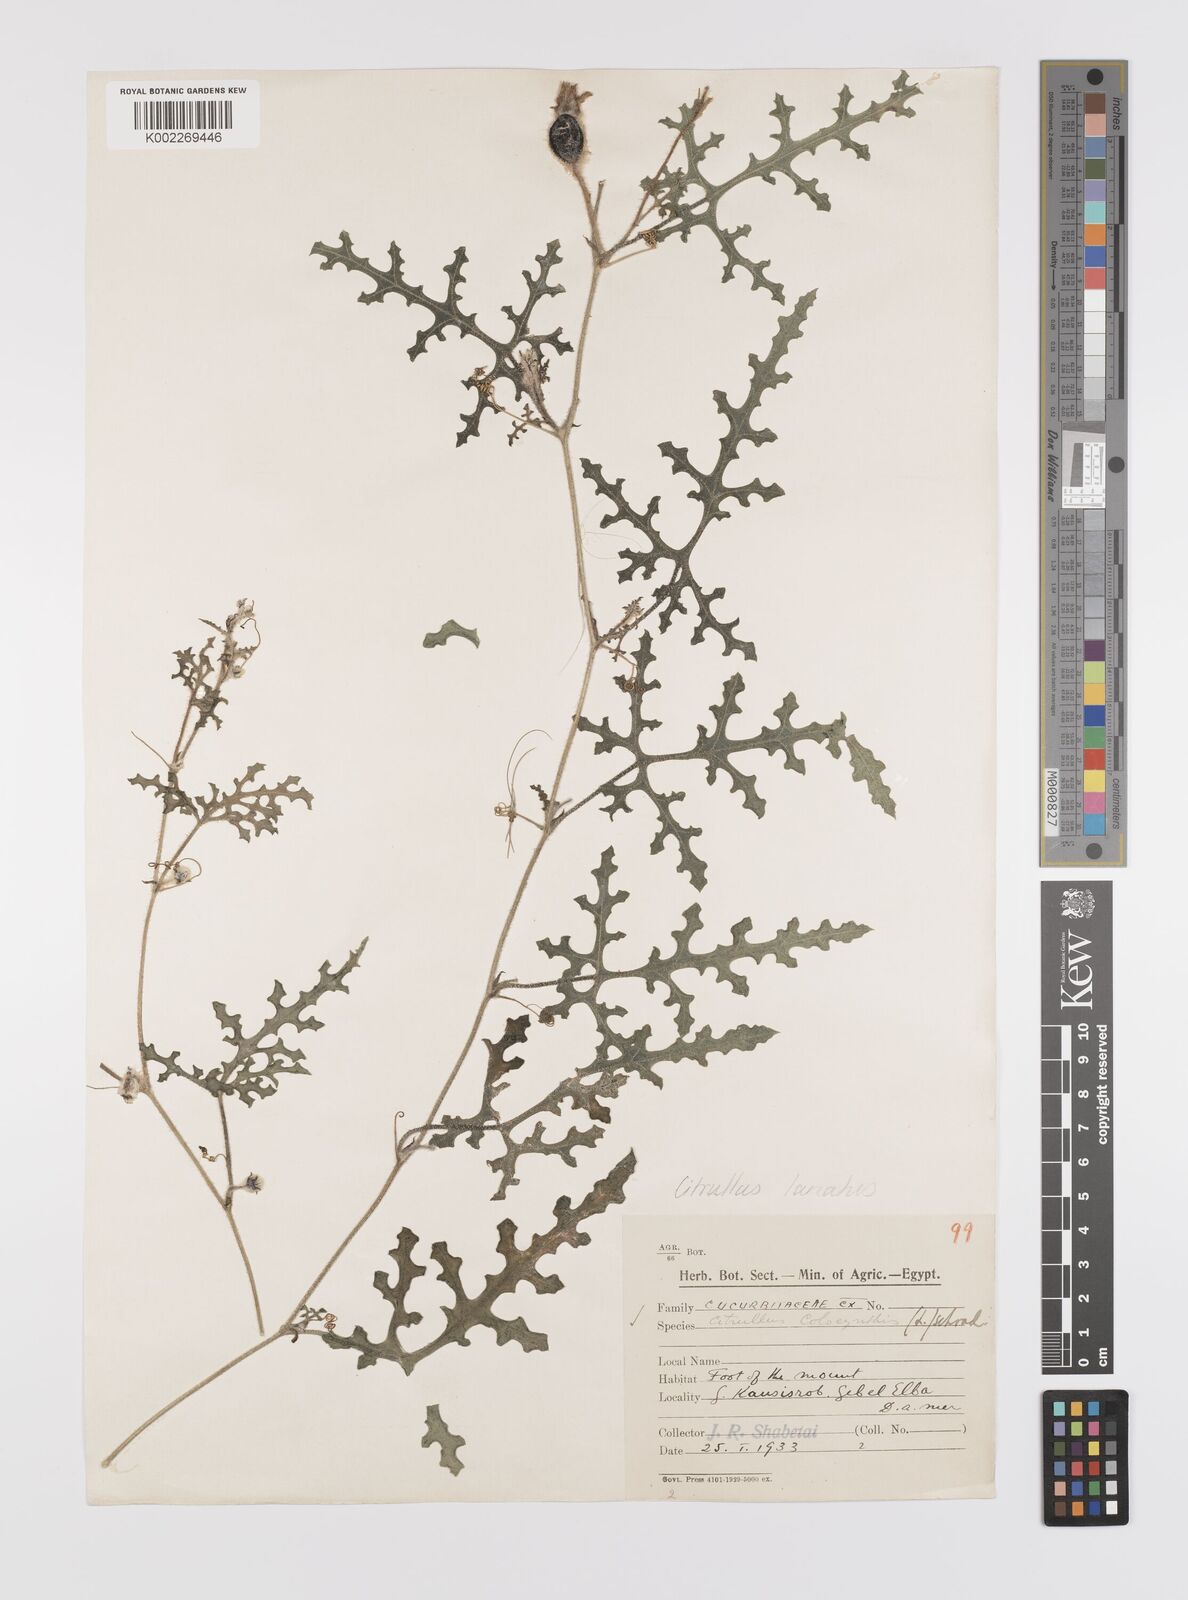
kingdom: Plantae
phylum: Tracheophyta
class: Magnoliopsida
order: Cucurbitales
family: Cucurbitaceae
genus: Citrullus
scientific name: Citrullus lanatus
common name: Watermelon
